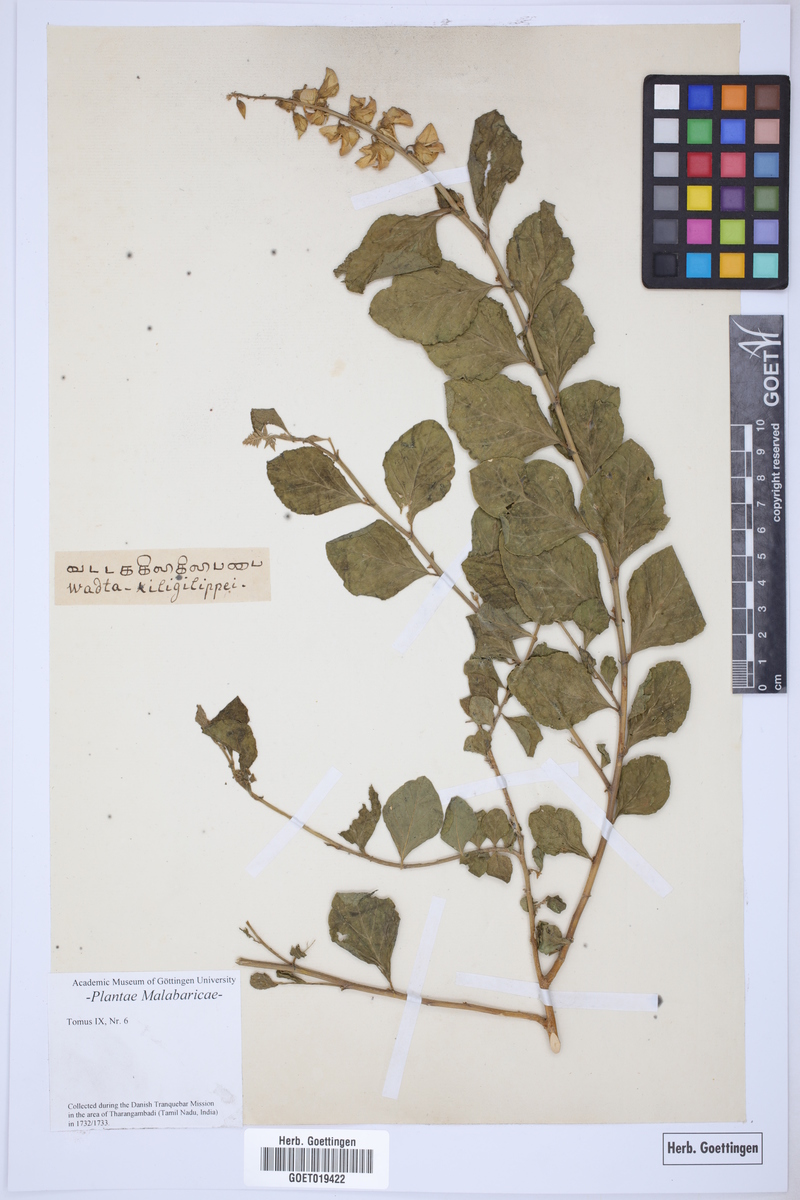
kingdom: Plantae
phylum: Tracheophyta
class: Magnoliopsida
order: Fabales
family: Fabaceae
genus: Crotalaria
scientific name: Crotalaria verrucosa
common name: Blue rattlesnake
